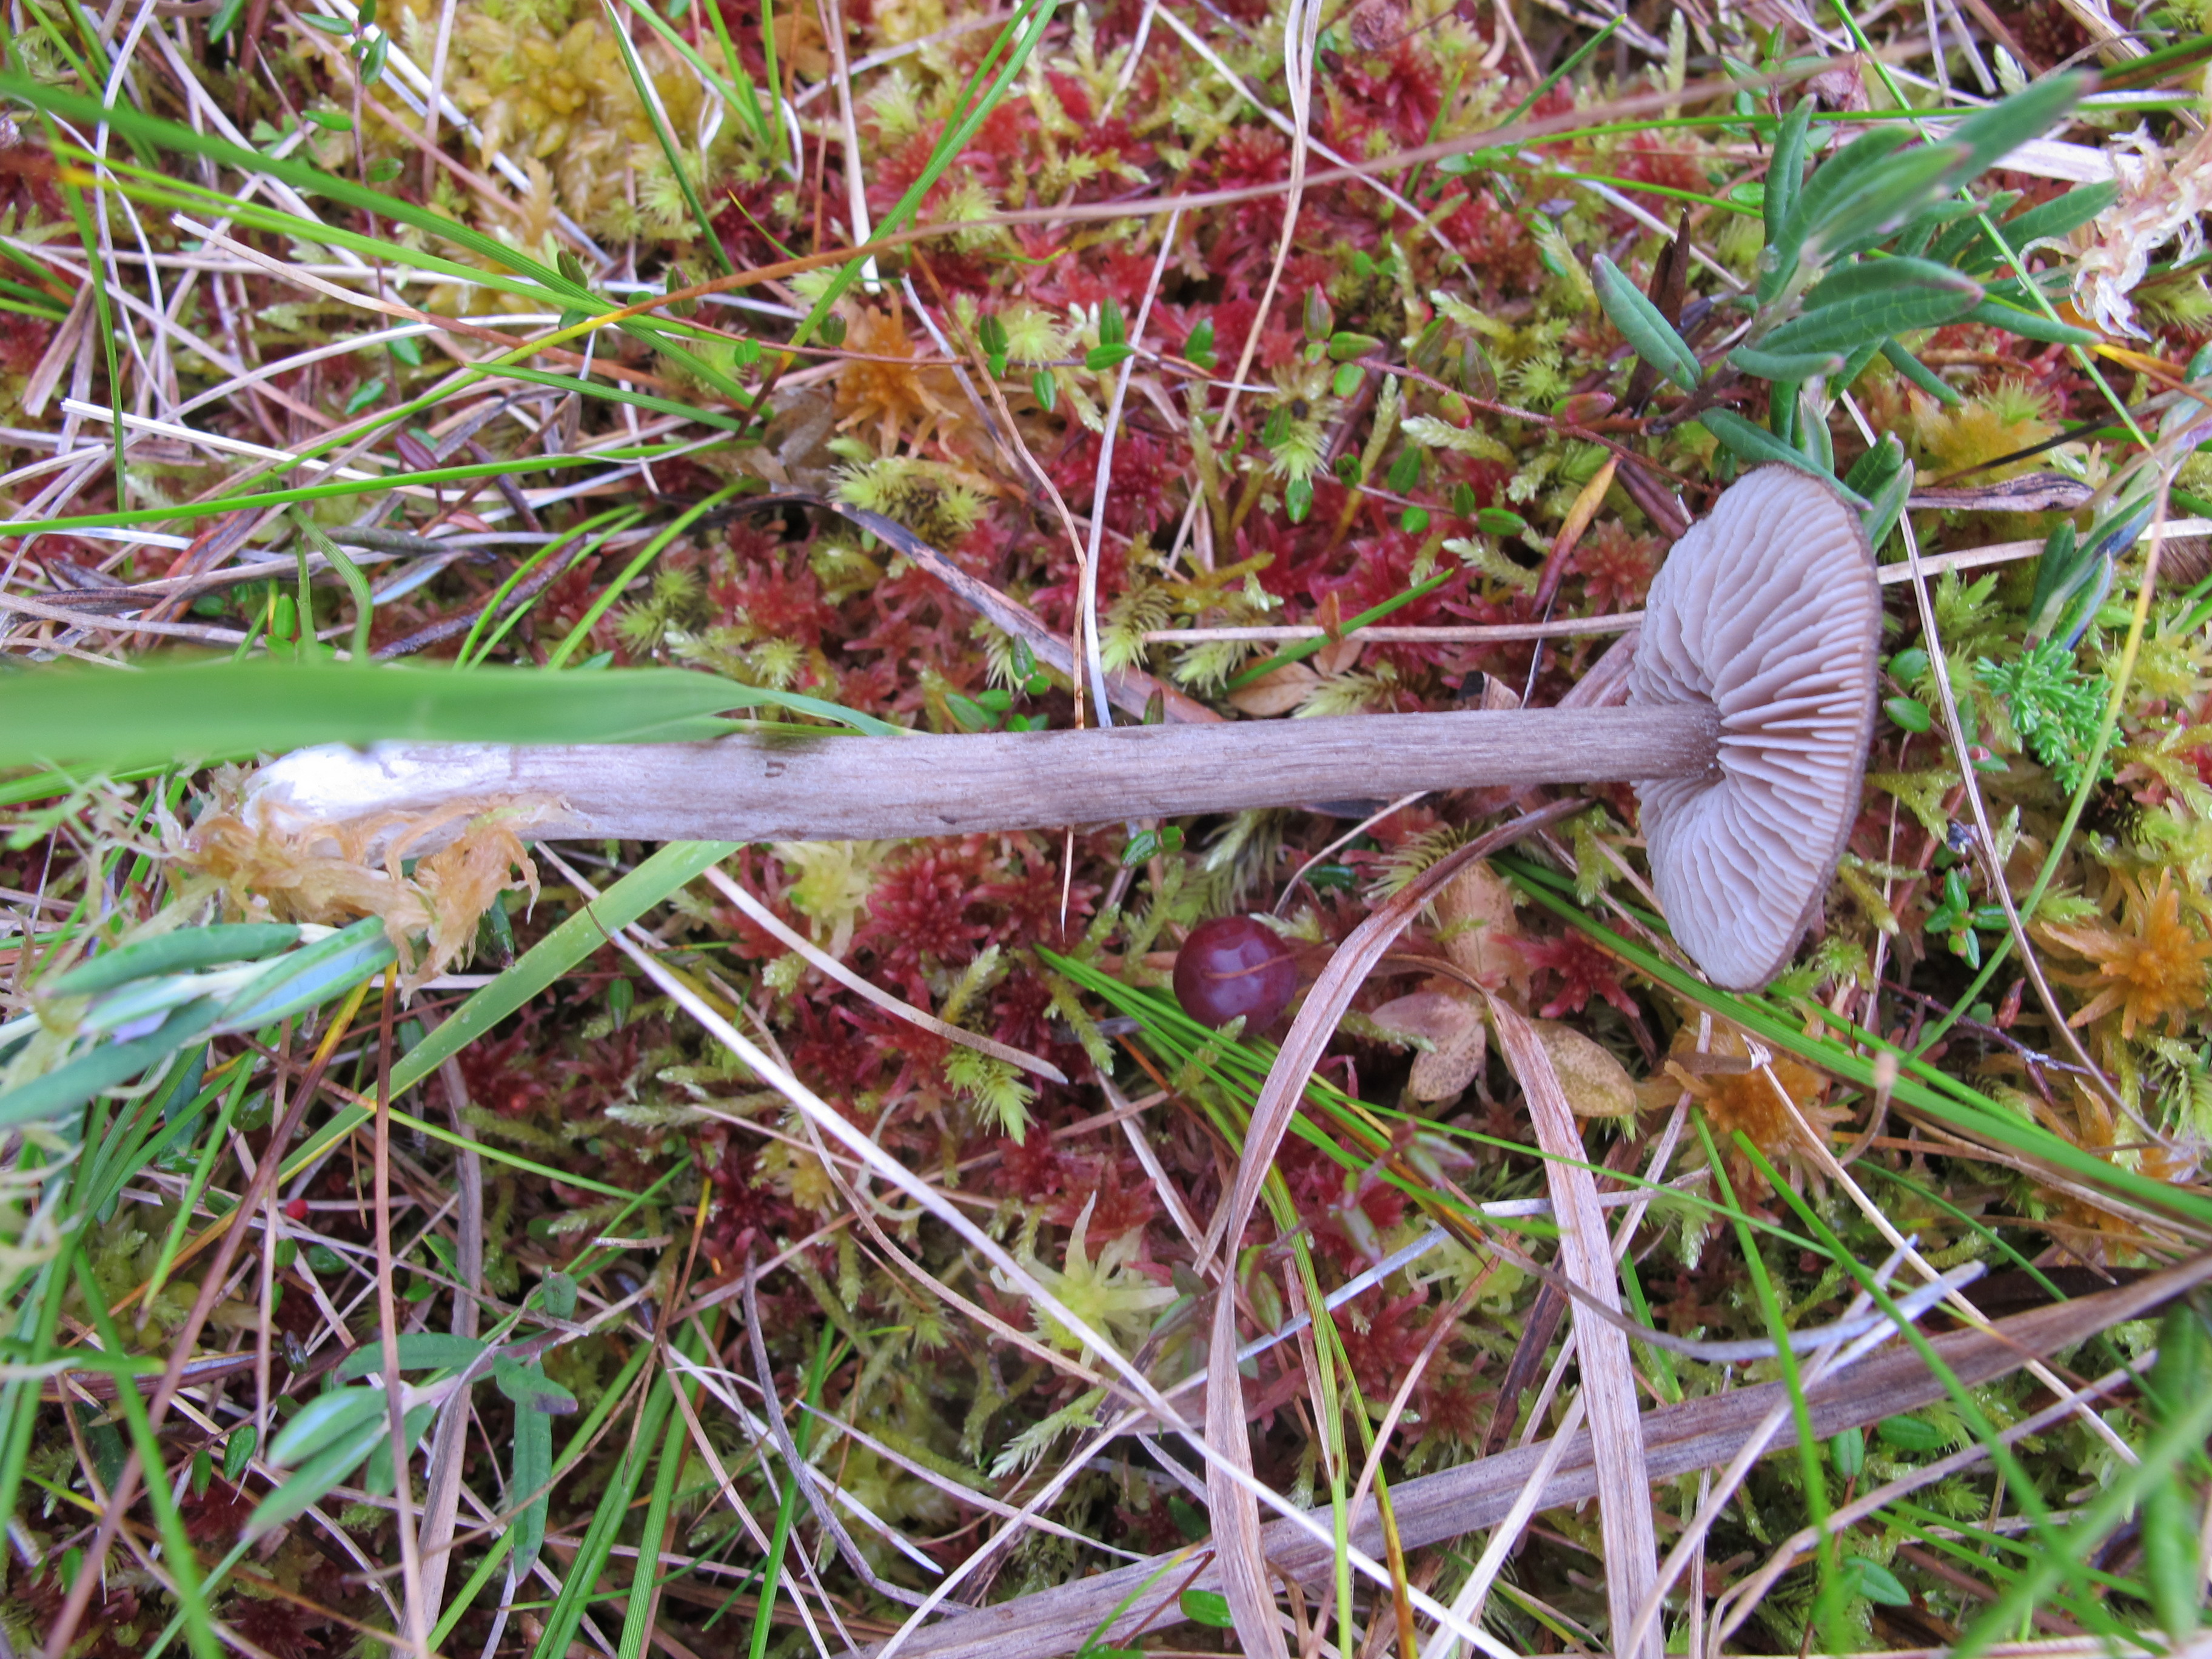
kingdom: Fungi
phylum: Basidiomycota
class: Agaricomycetes
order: Agaricales
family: Entolomataceae
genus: Entoloma
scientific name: Entoloma elodes
